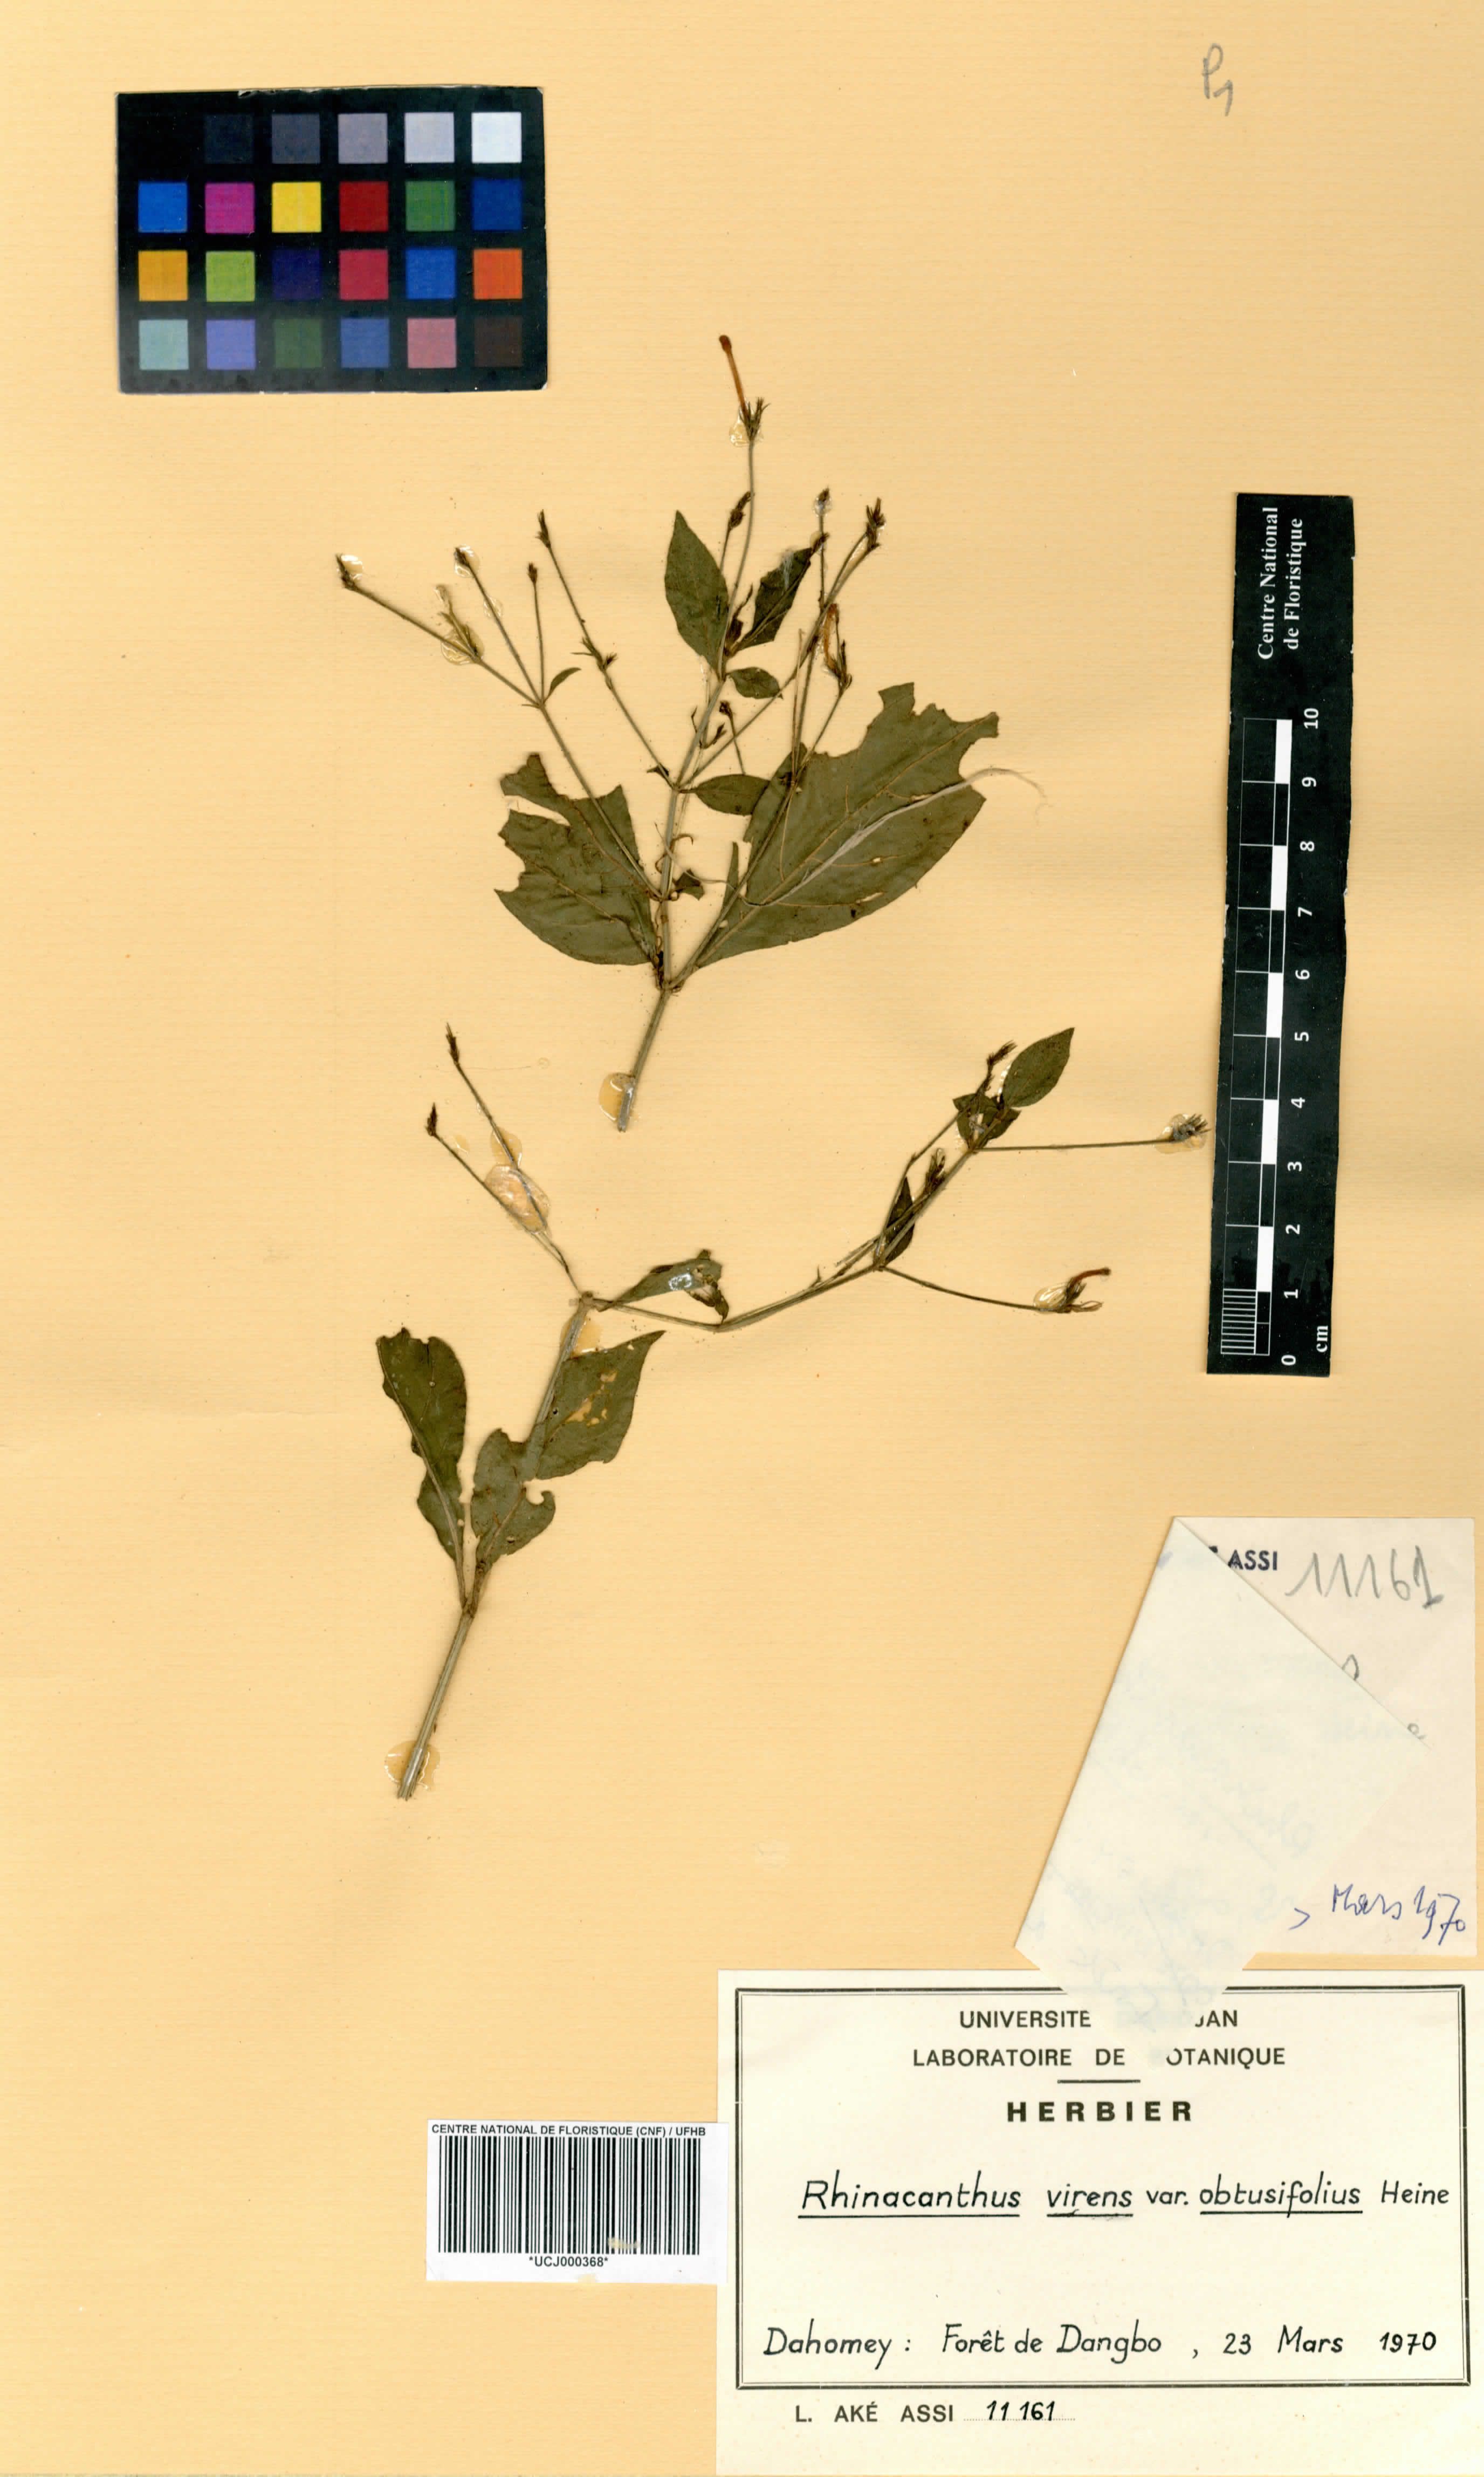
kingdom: Plantae
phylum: Tracheophyta
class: Magnoliopsida
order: Lamiales
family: Acanthaceae
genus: Rhinacanthus
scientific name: Rhinacanthus obtusifolius
